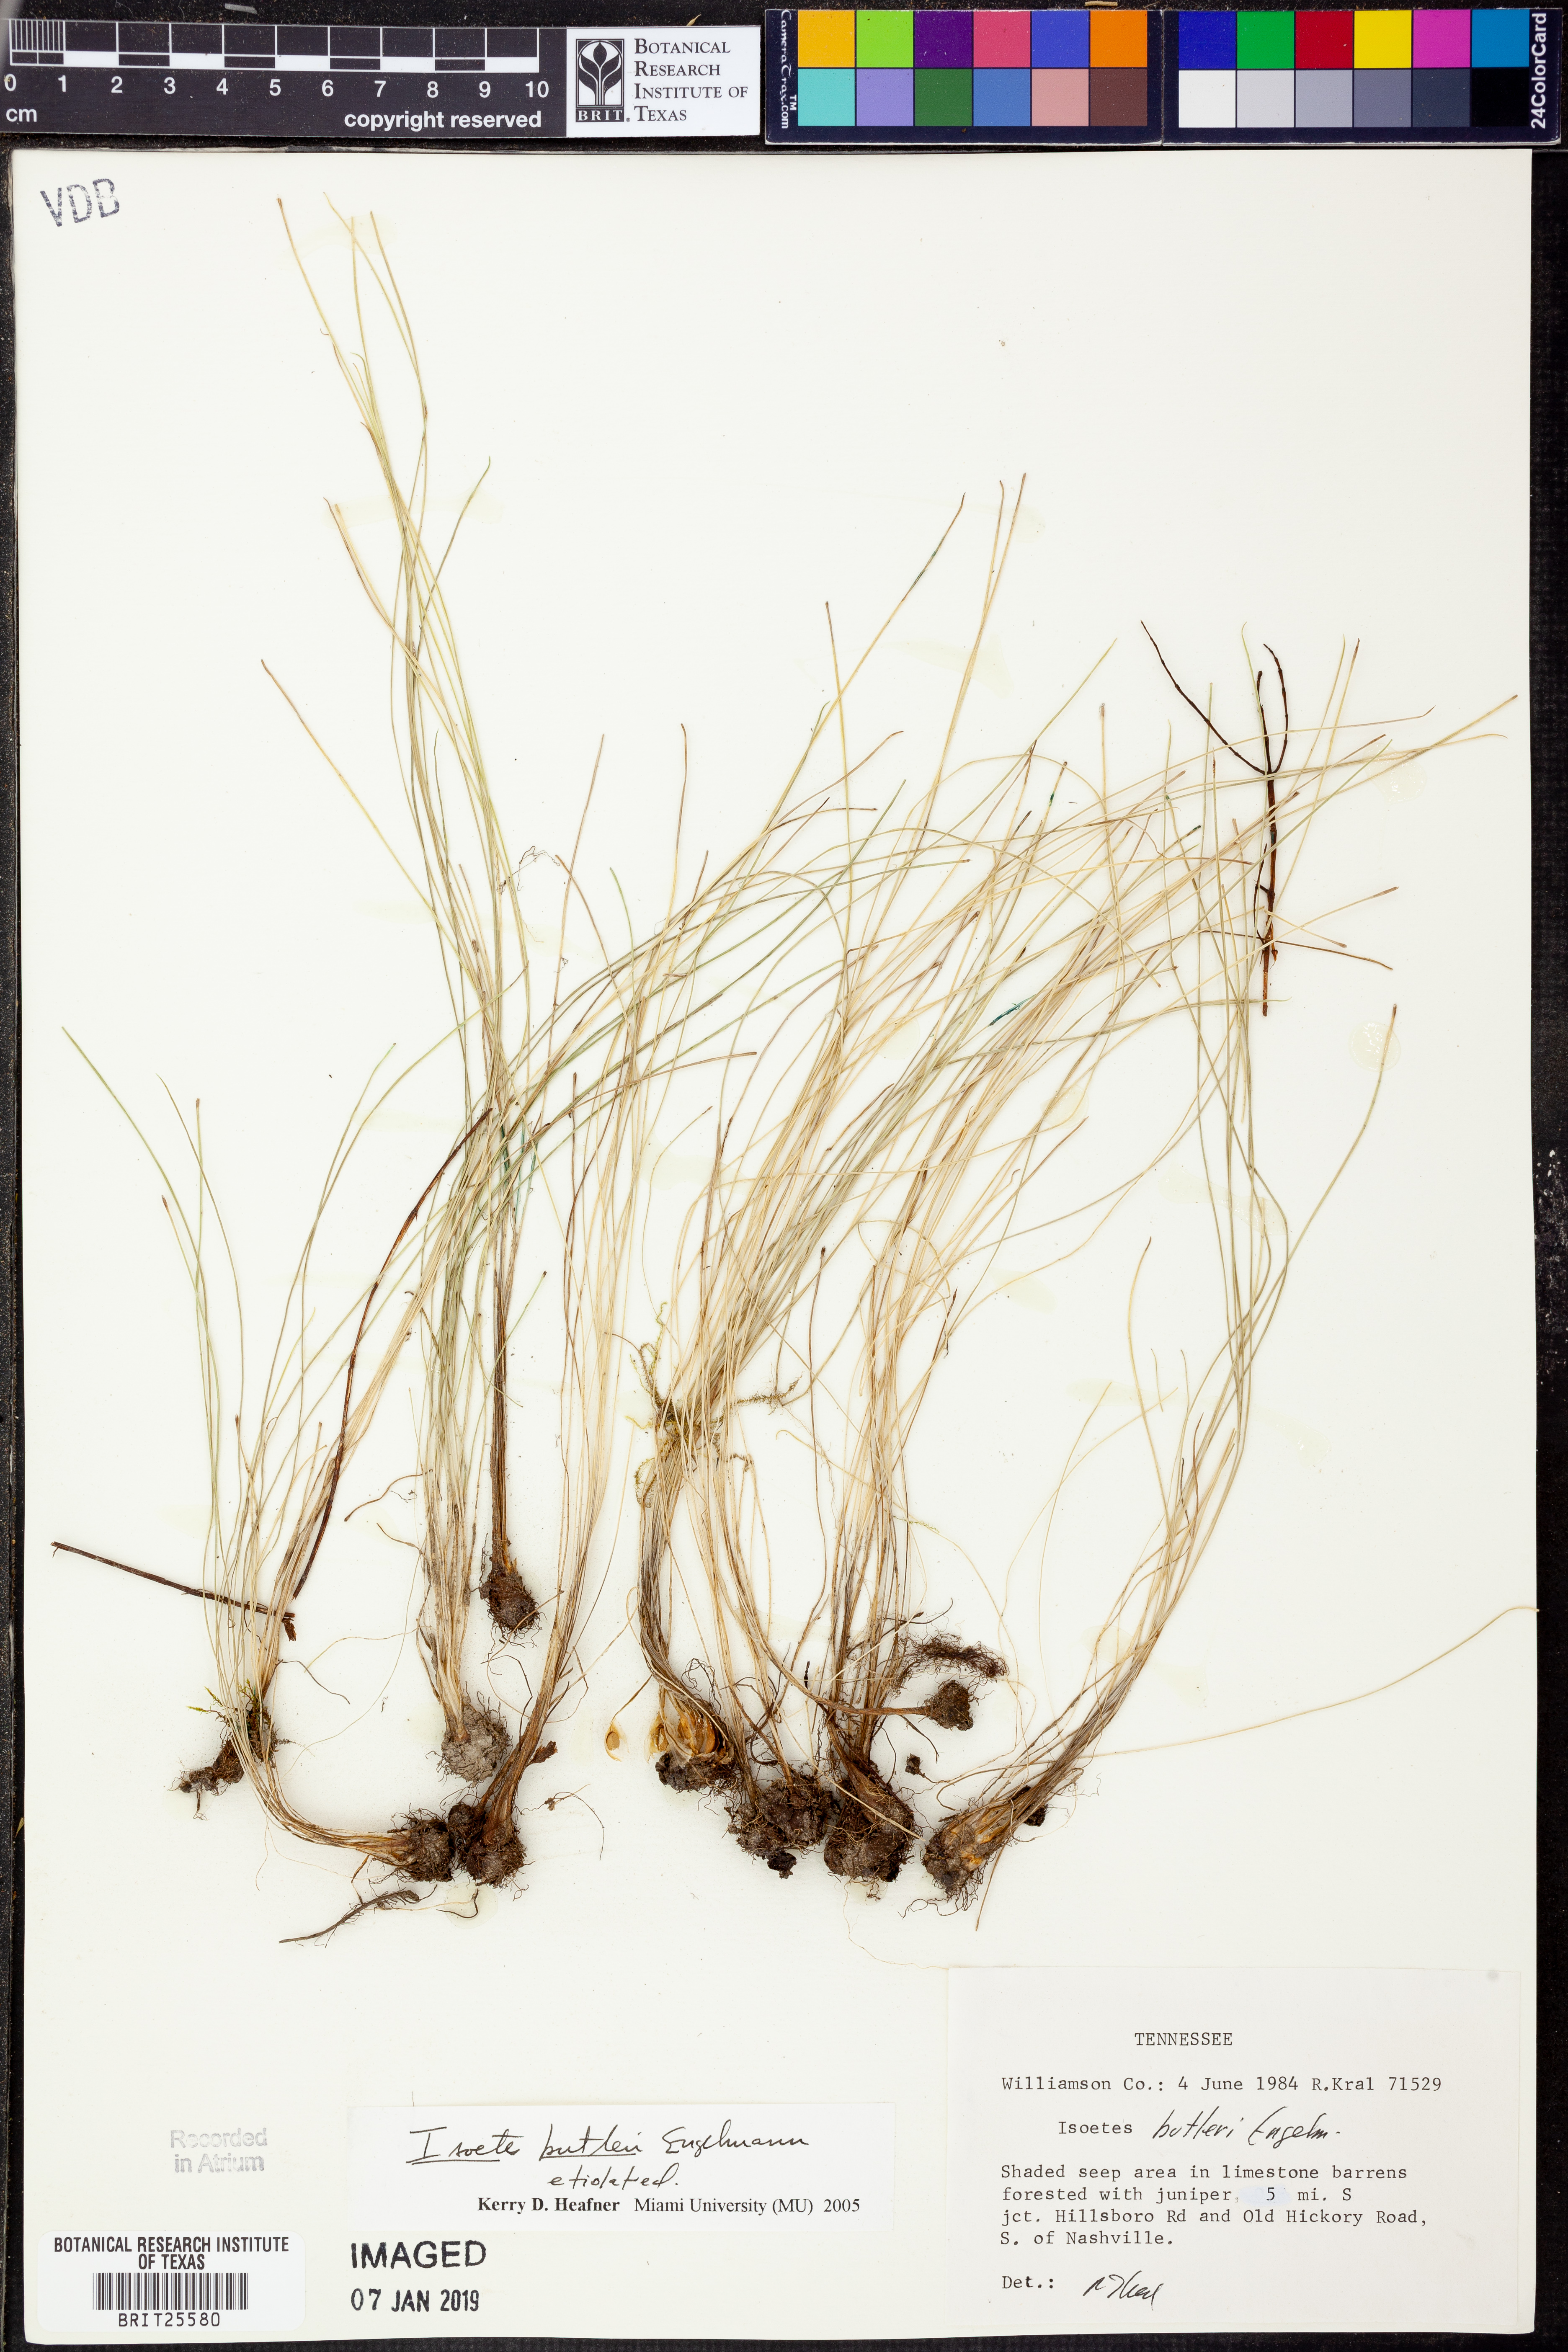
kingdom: Plantae
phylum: Tracheophyta
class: Lycopodiopsida
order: Isoetales
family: Isoetaceae
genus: Isoetes
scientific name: Isoetes butleri
